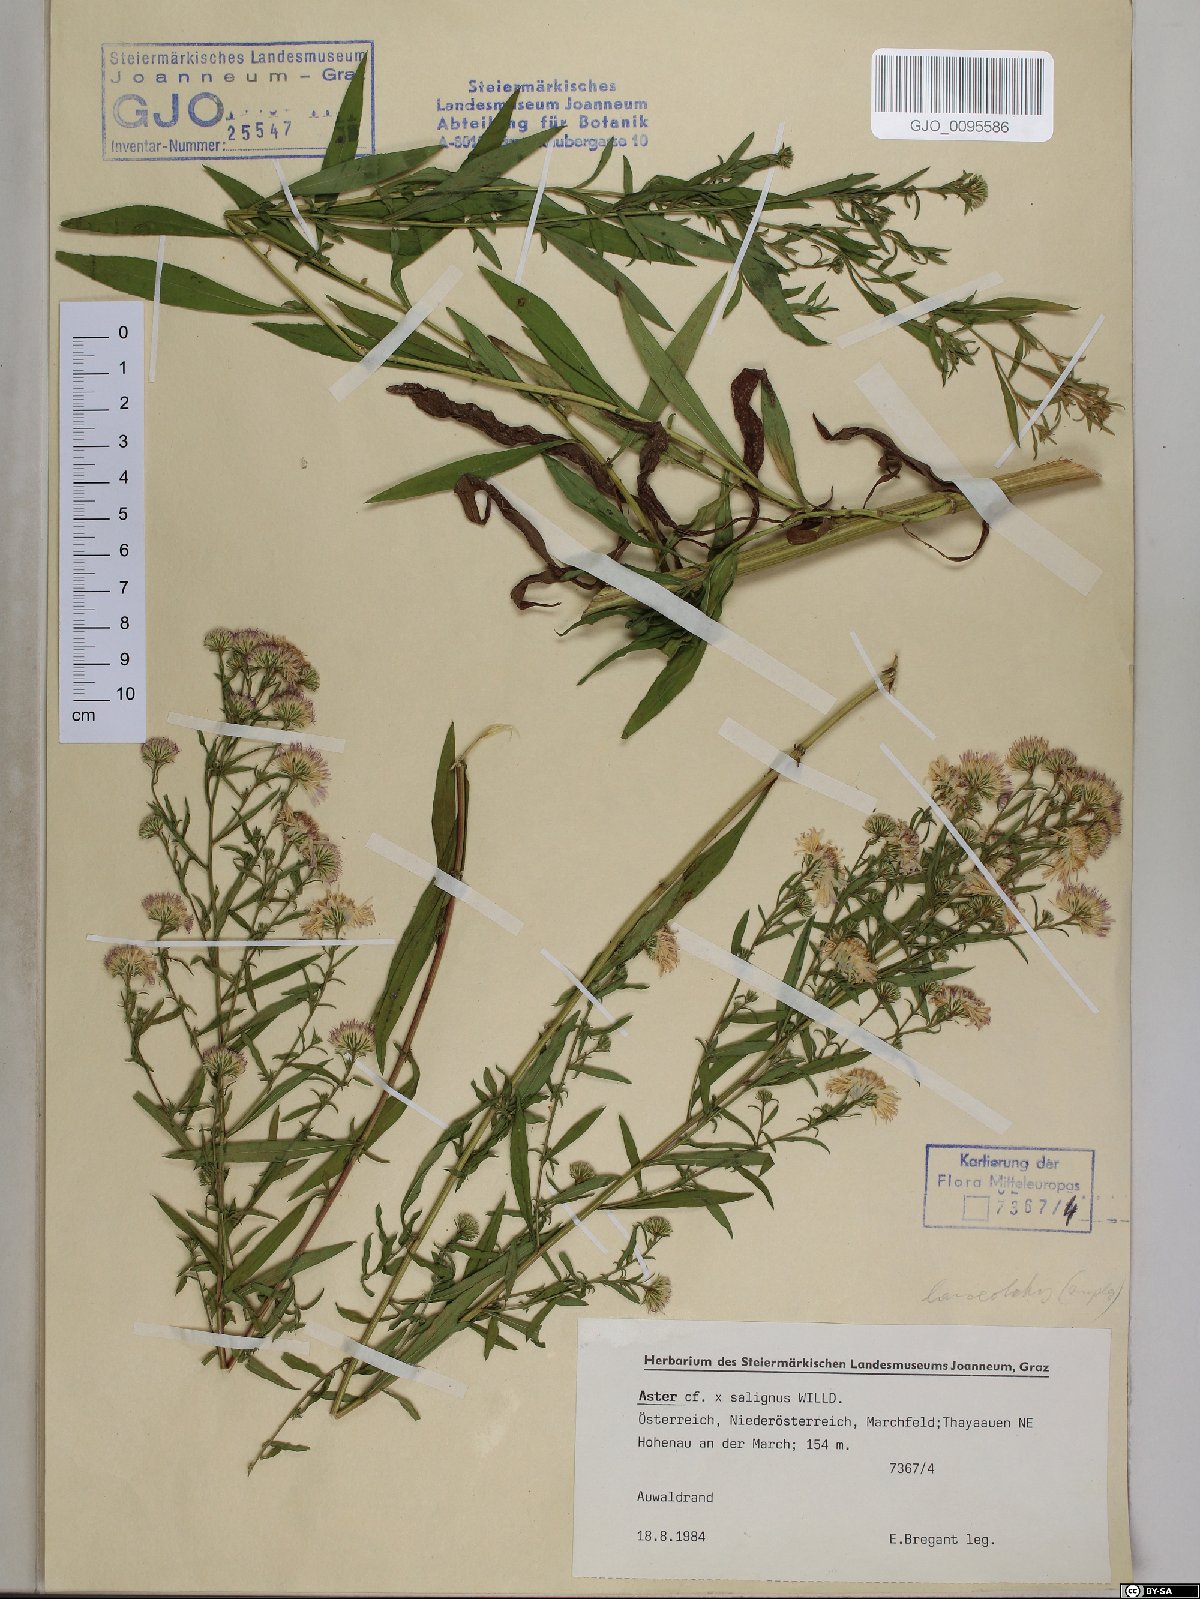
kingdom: Plantae
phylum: Tracheophyta
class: Magnoliopsida
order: Asterales
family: Asteraceae
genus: Symphyotrichum
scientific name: Symphyotrichum salignum
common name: Common michaelmas daisy
